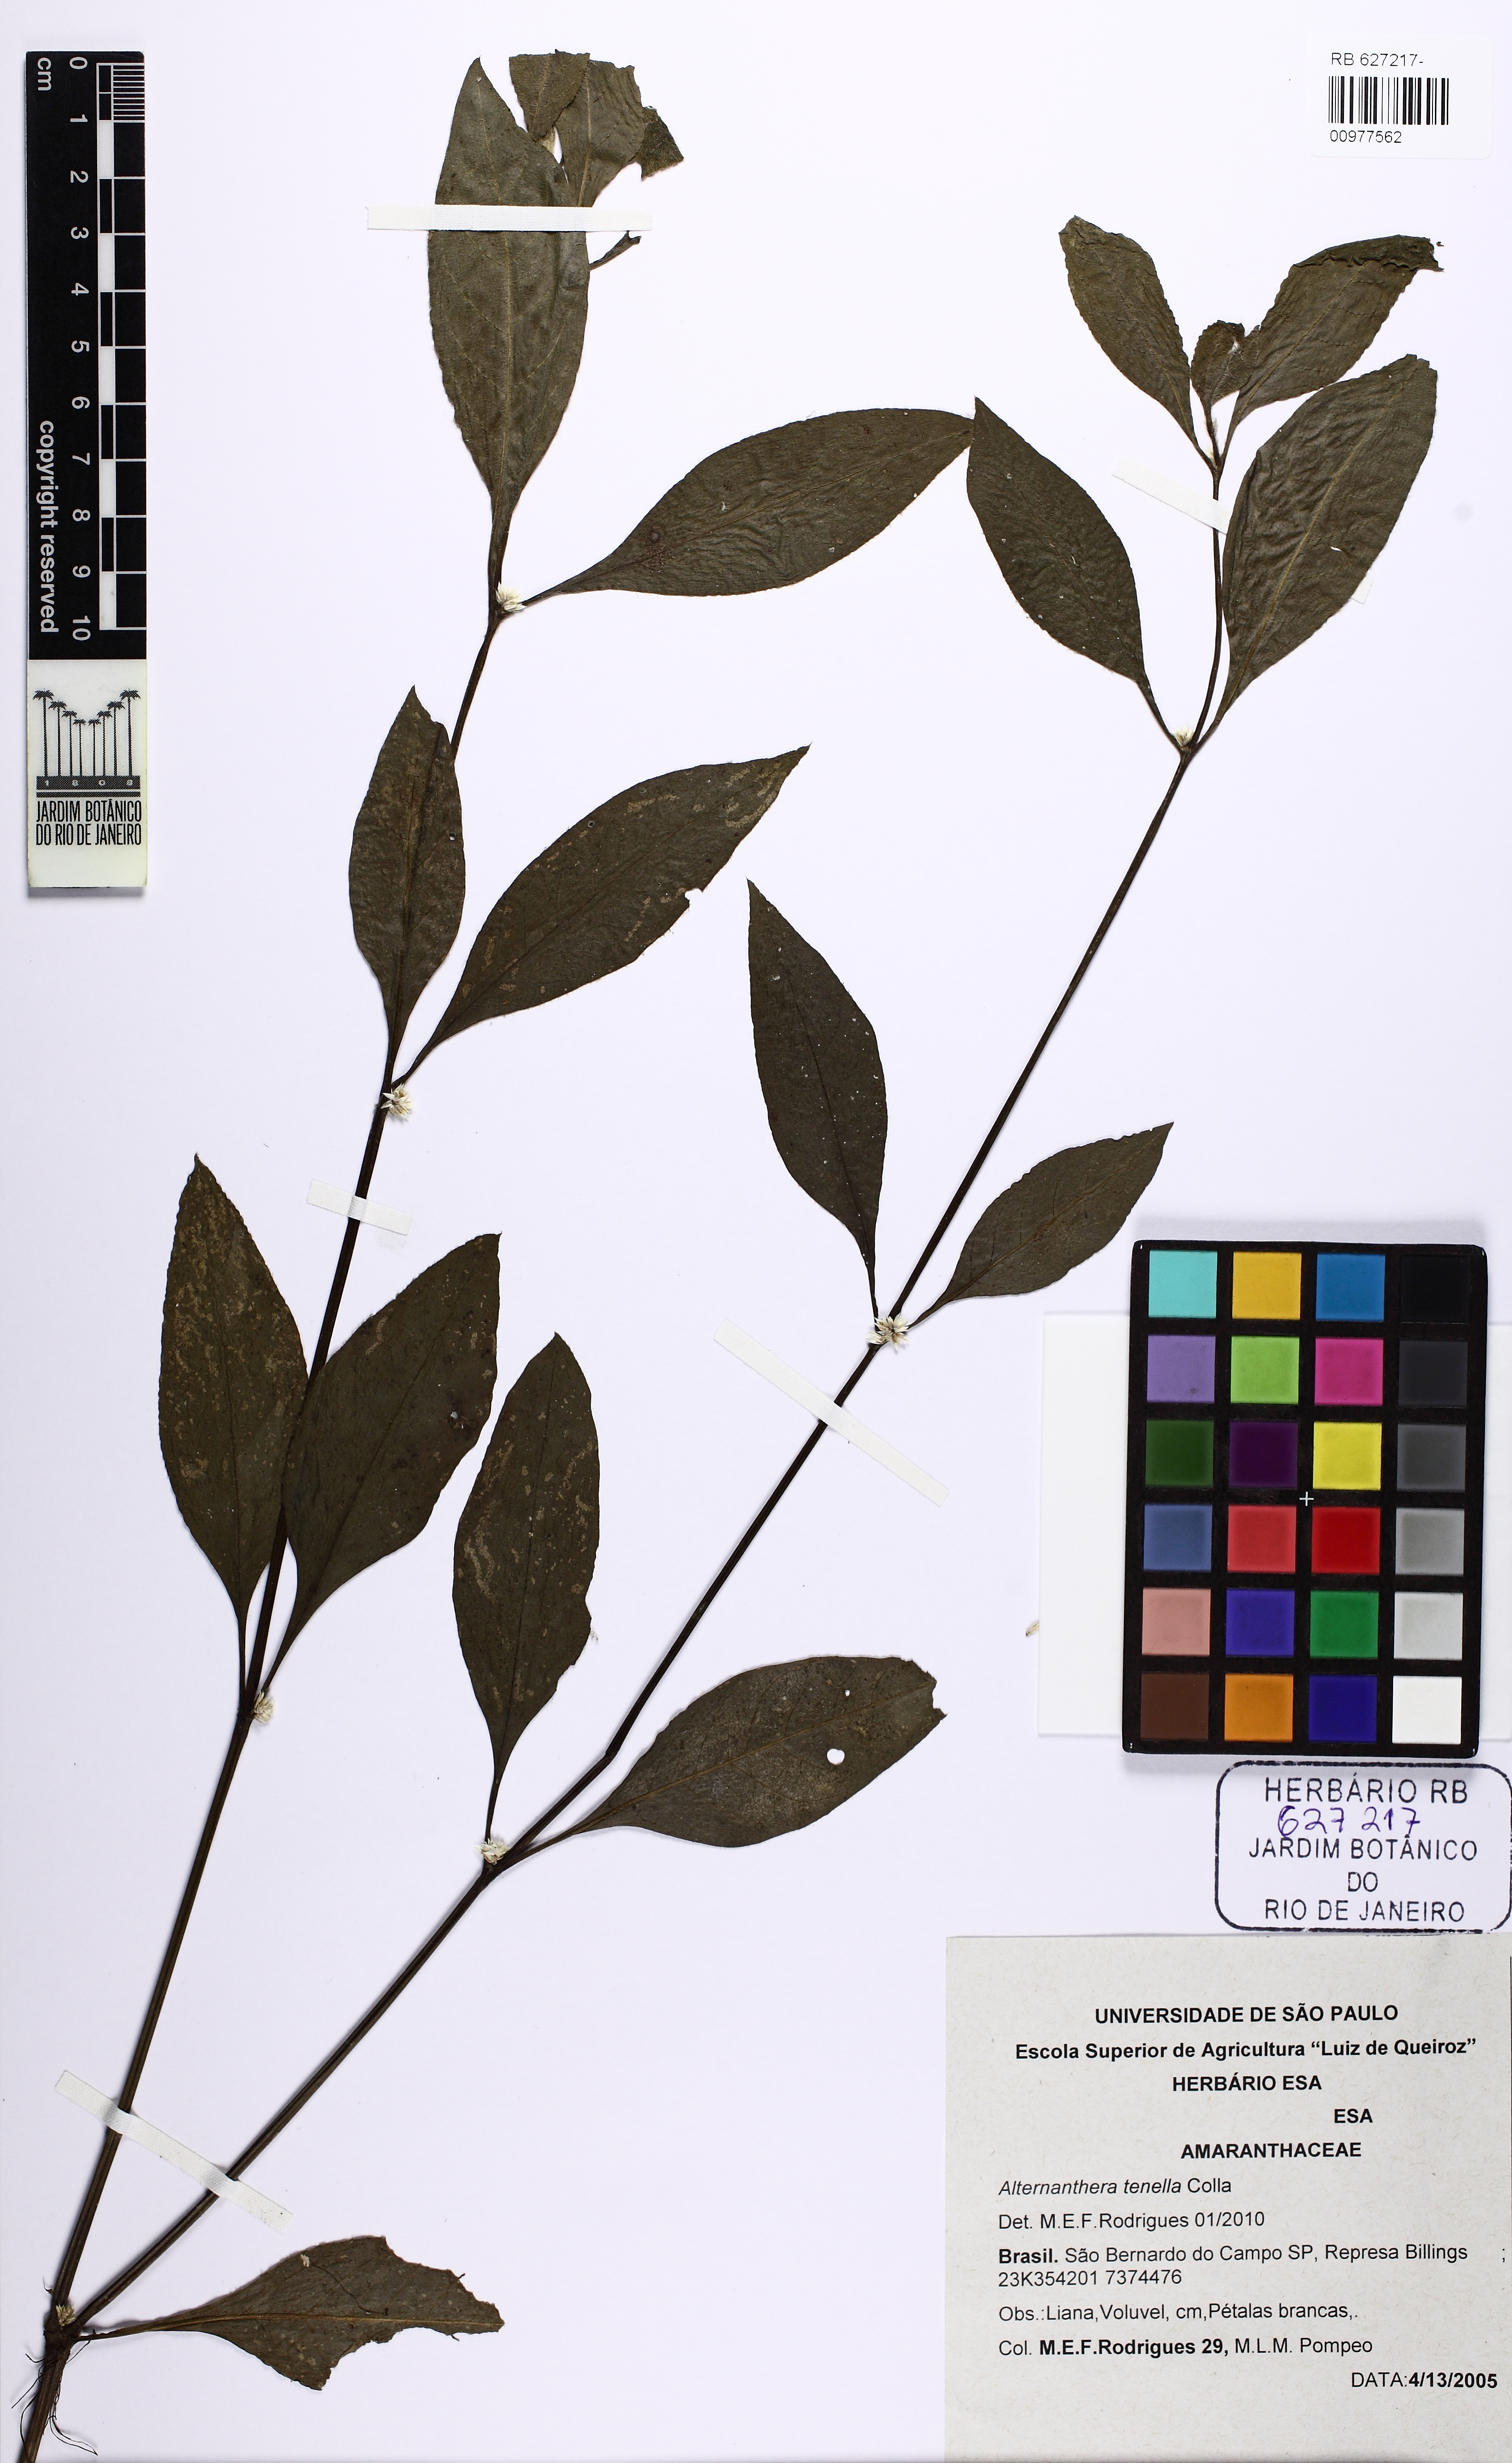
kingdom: Plantae
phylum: Tracheophyta
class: Magnoliopsida
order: Caryophyllales
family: Amaranthaceae
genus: Alternanthera
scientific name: Alternanthera ficoidea
